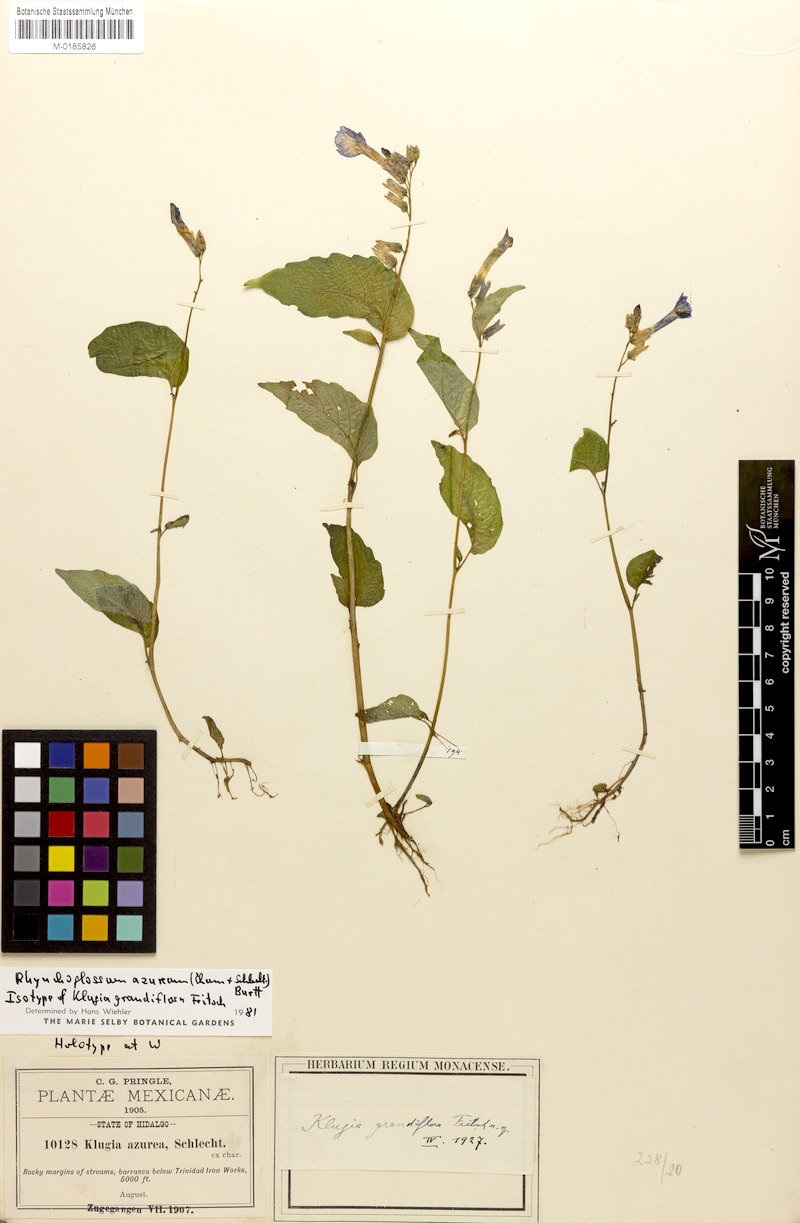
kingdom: Plantae
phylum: Tracheophyta
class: Magnoliopsida
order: Lamiales
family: Gesneriaceae
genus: Rhynchoglossum
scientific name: Rhynchoglossum azureum
